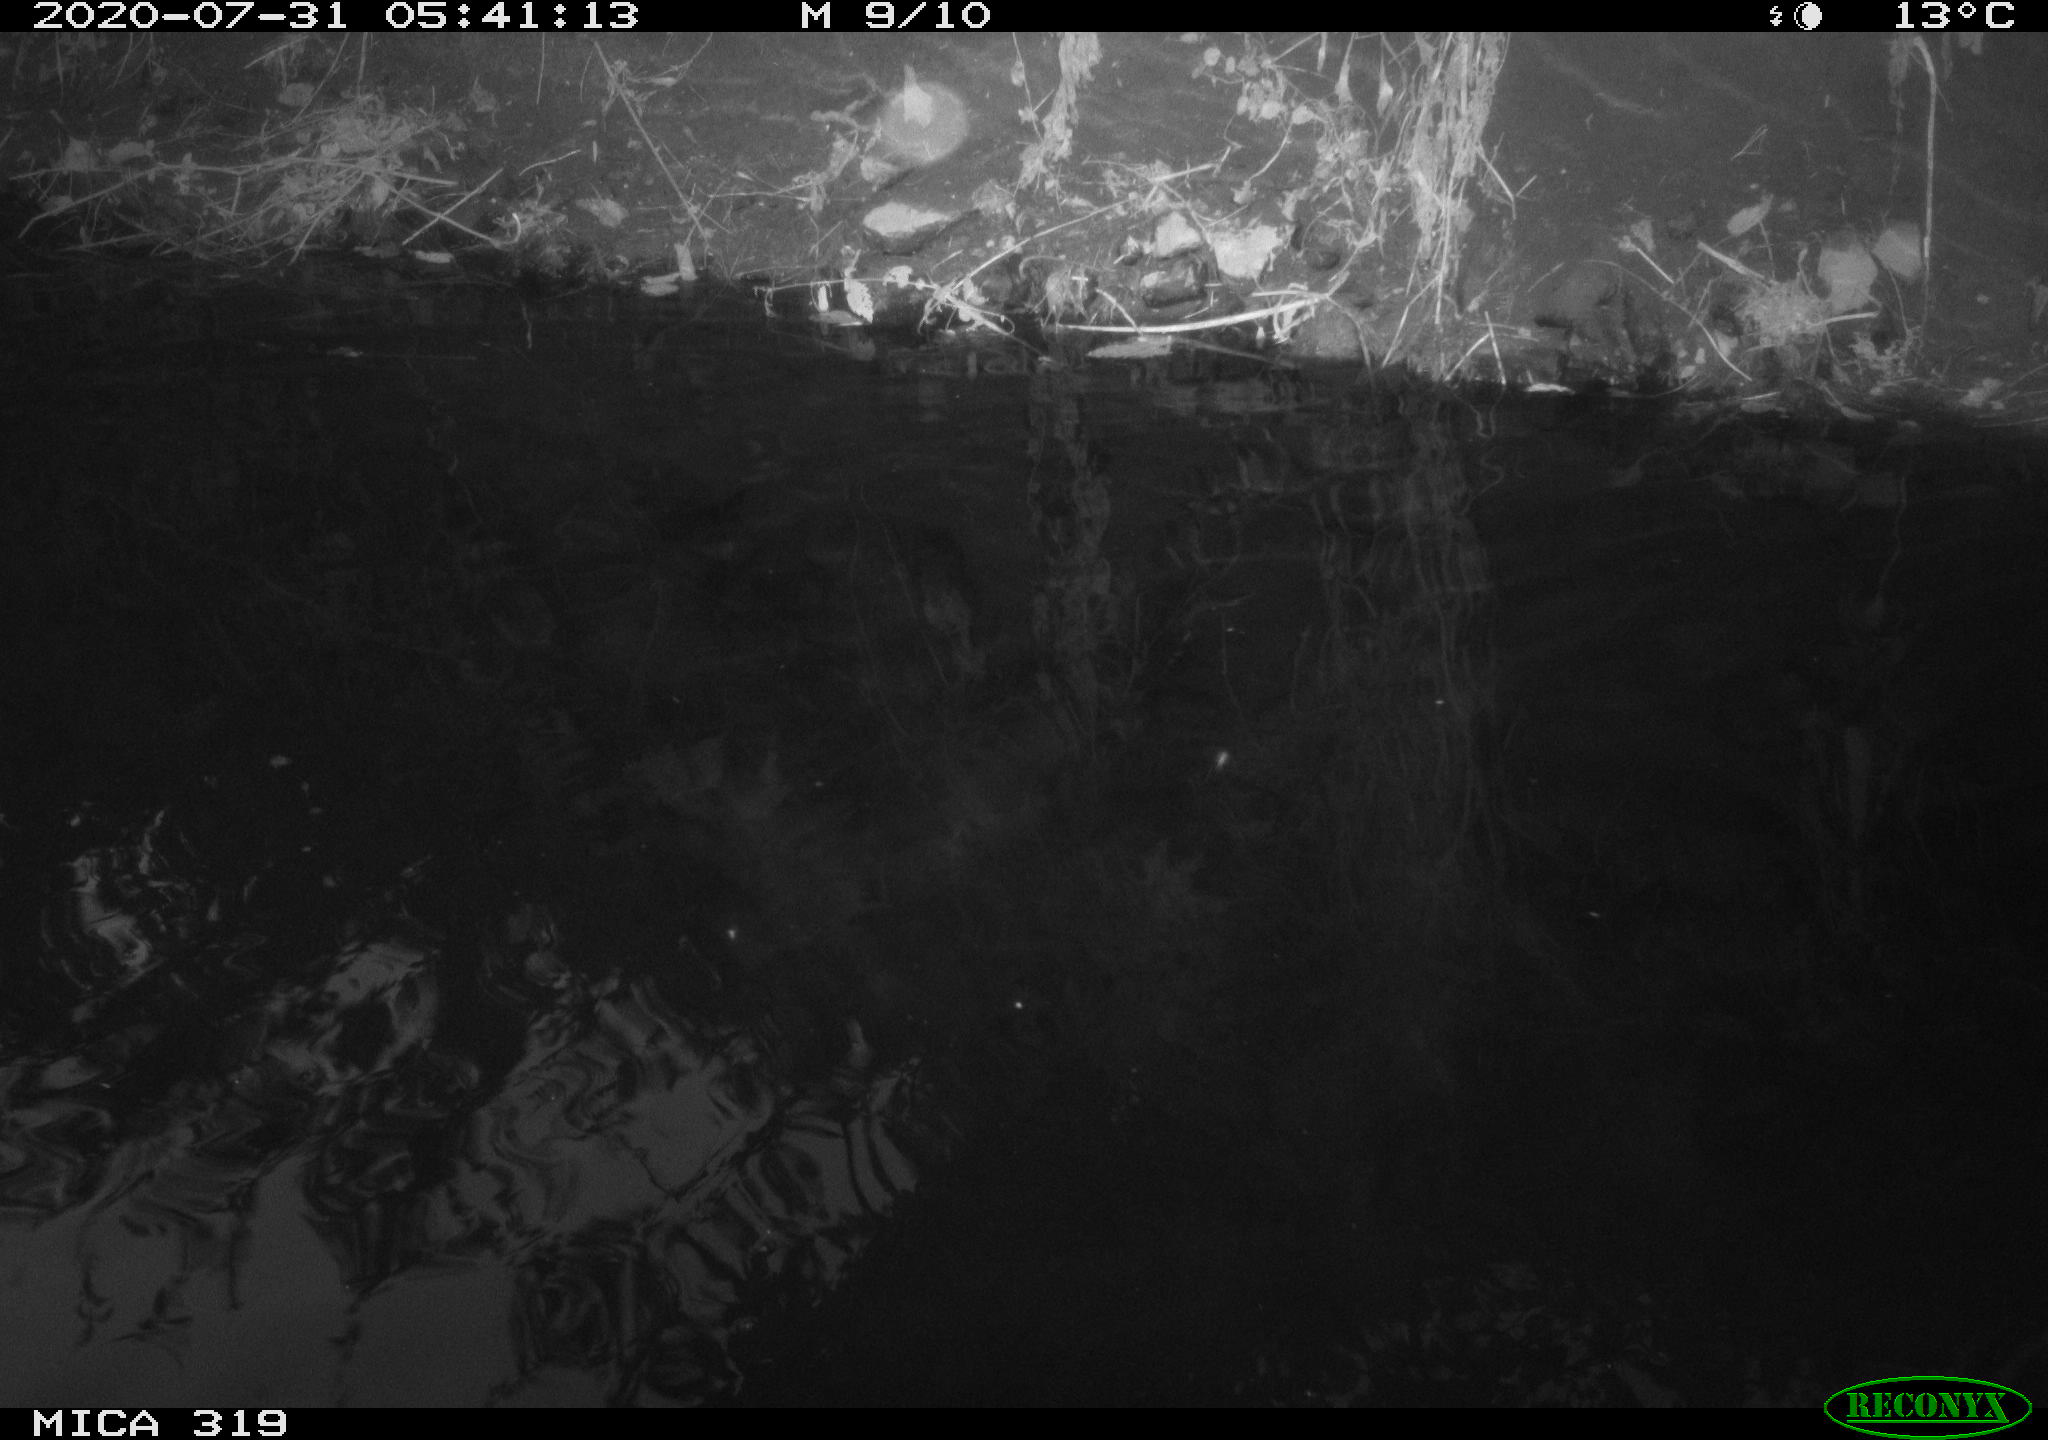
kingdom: Animalia
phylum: Chordata
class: Aves
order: Anseriformes
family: Anatidae
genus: Anas
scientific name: Anas platyrhynchos
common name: Mallard
